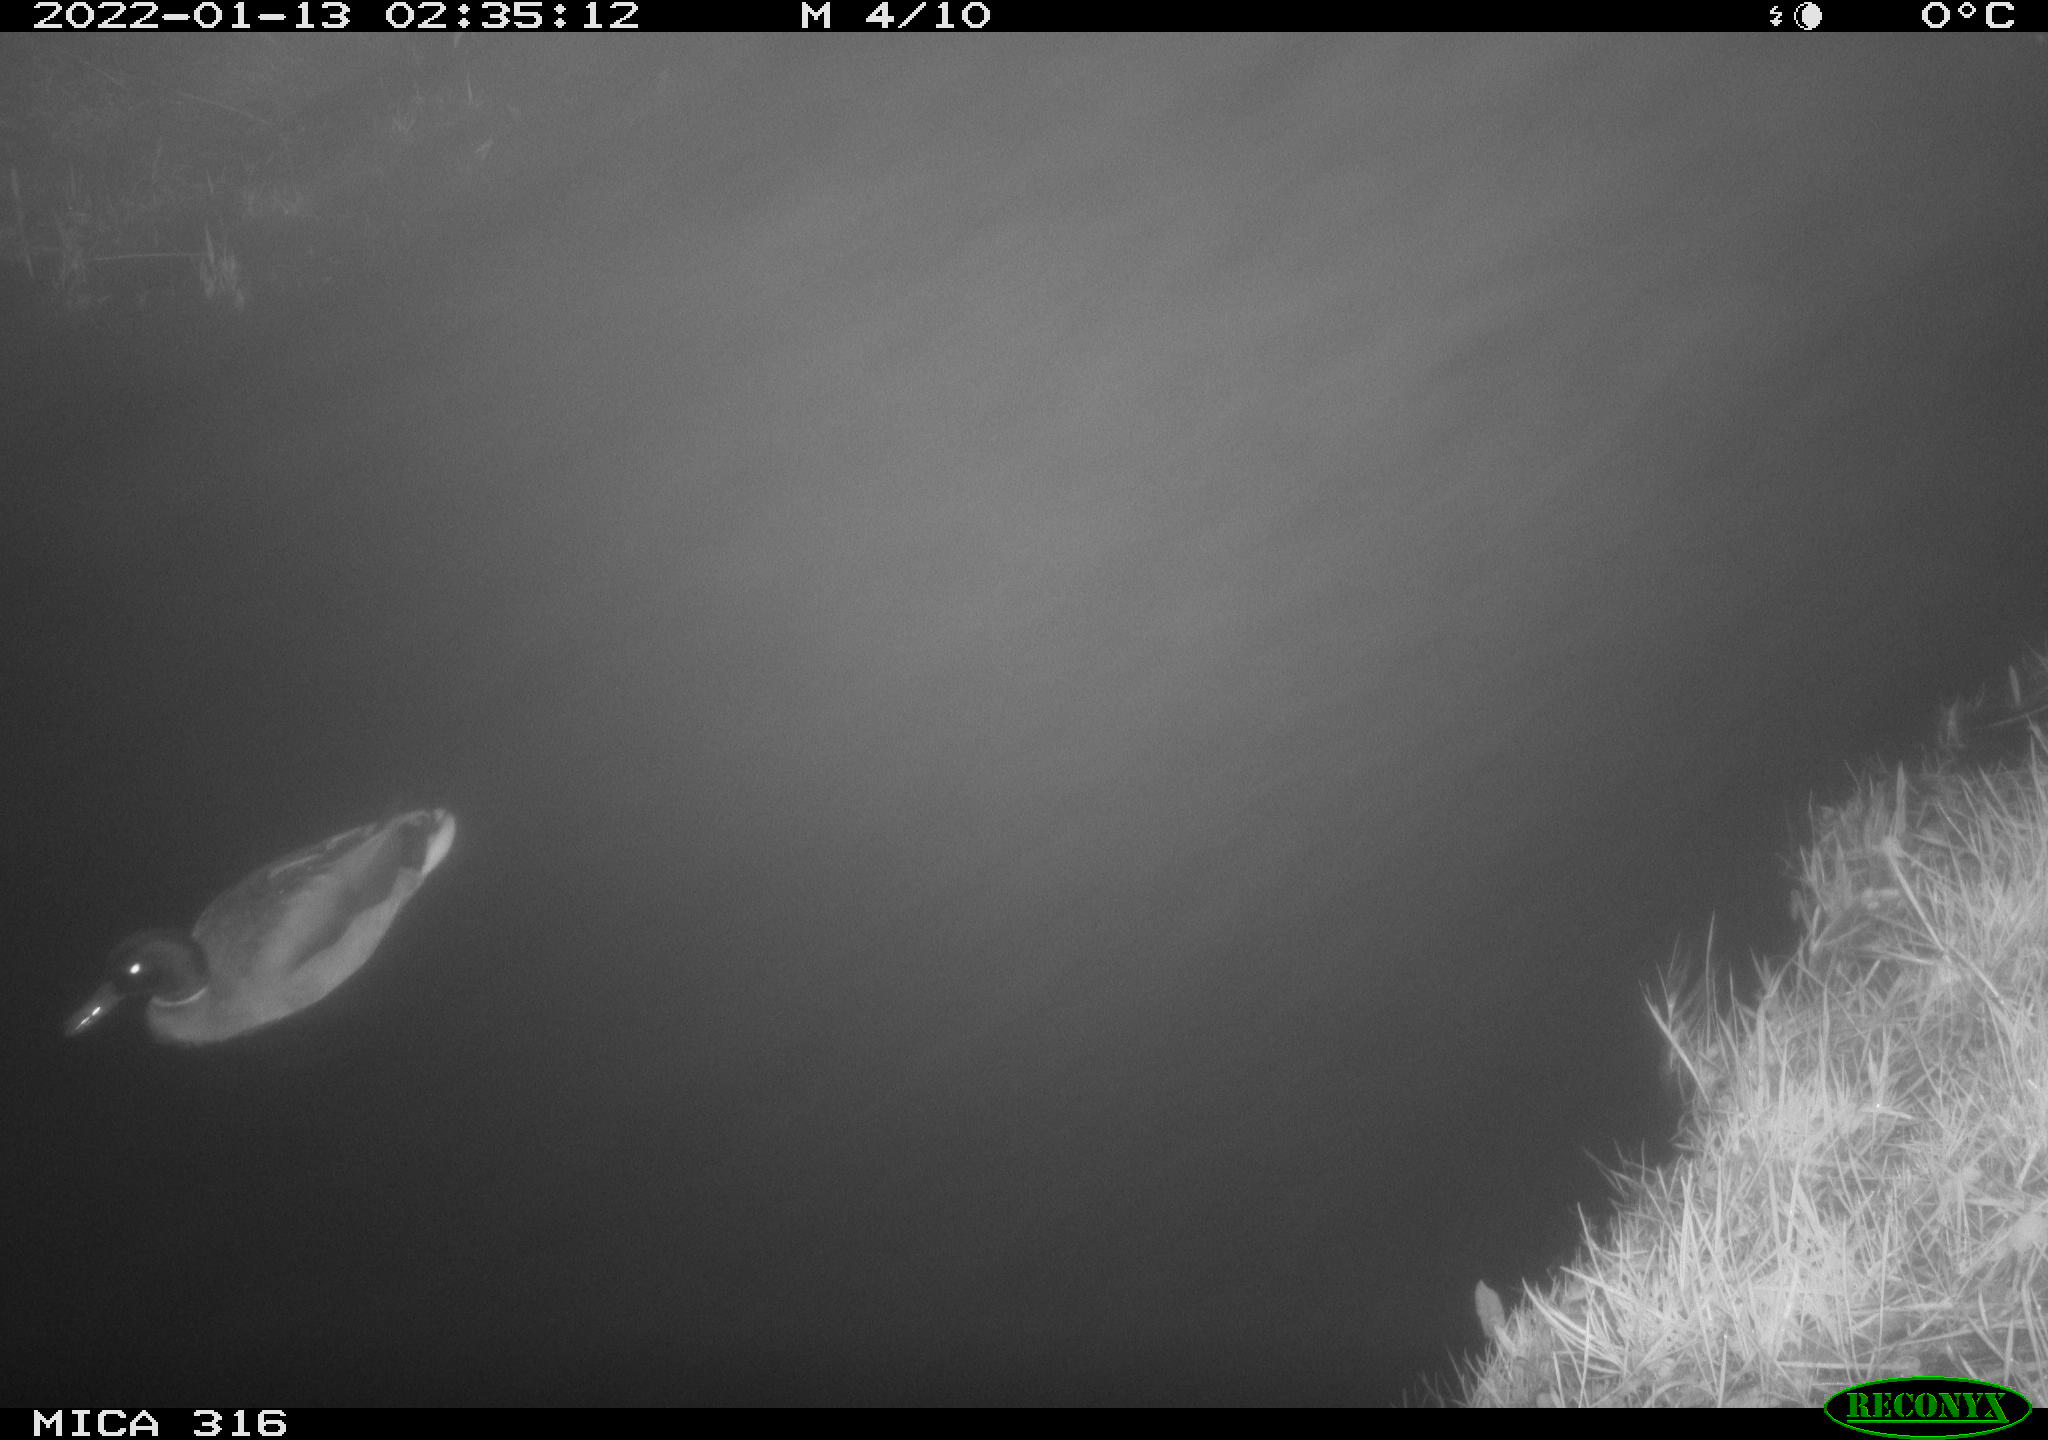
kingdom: Animalia
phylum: Chordata
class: Aves
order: Anseriformes
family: Anatidae
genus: Anas
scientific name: Anas
